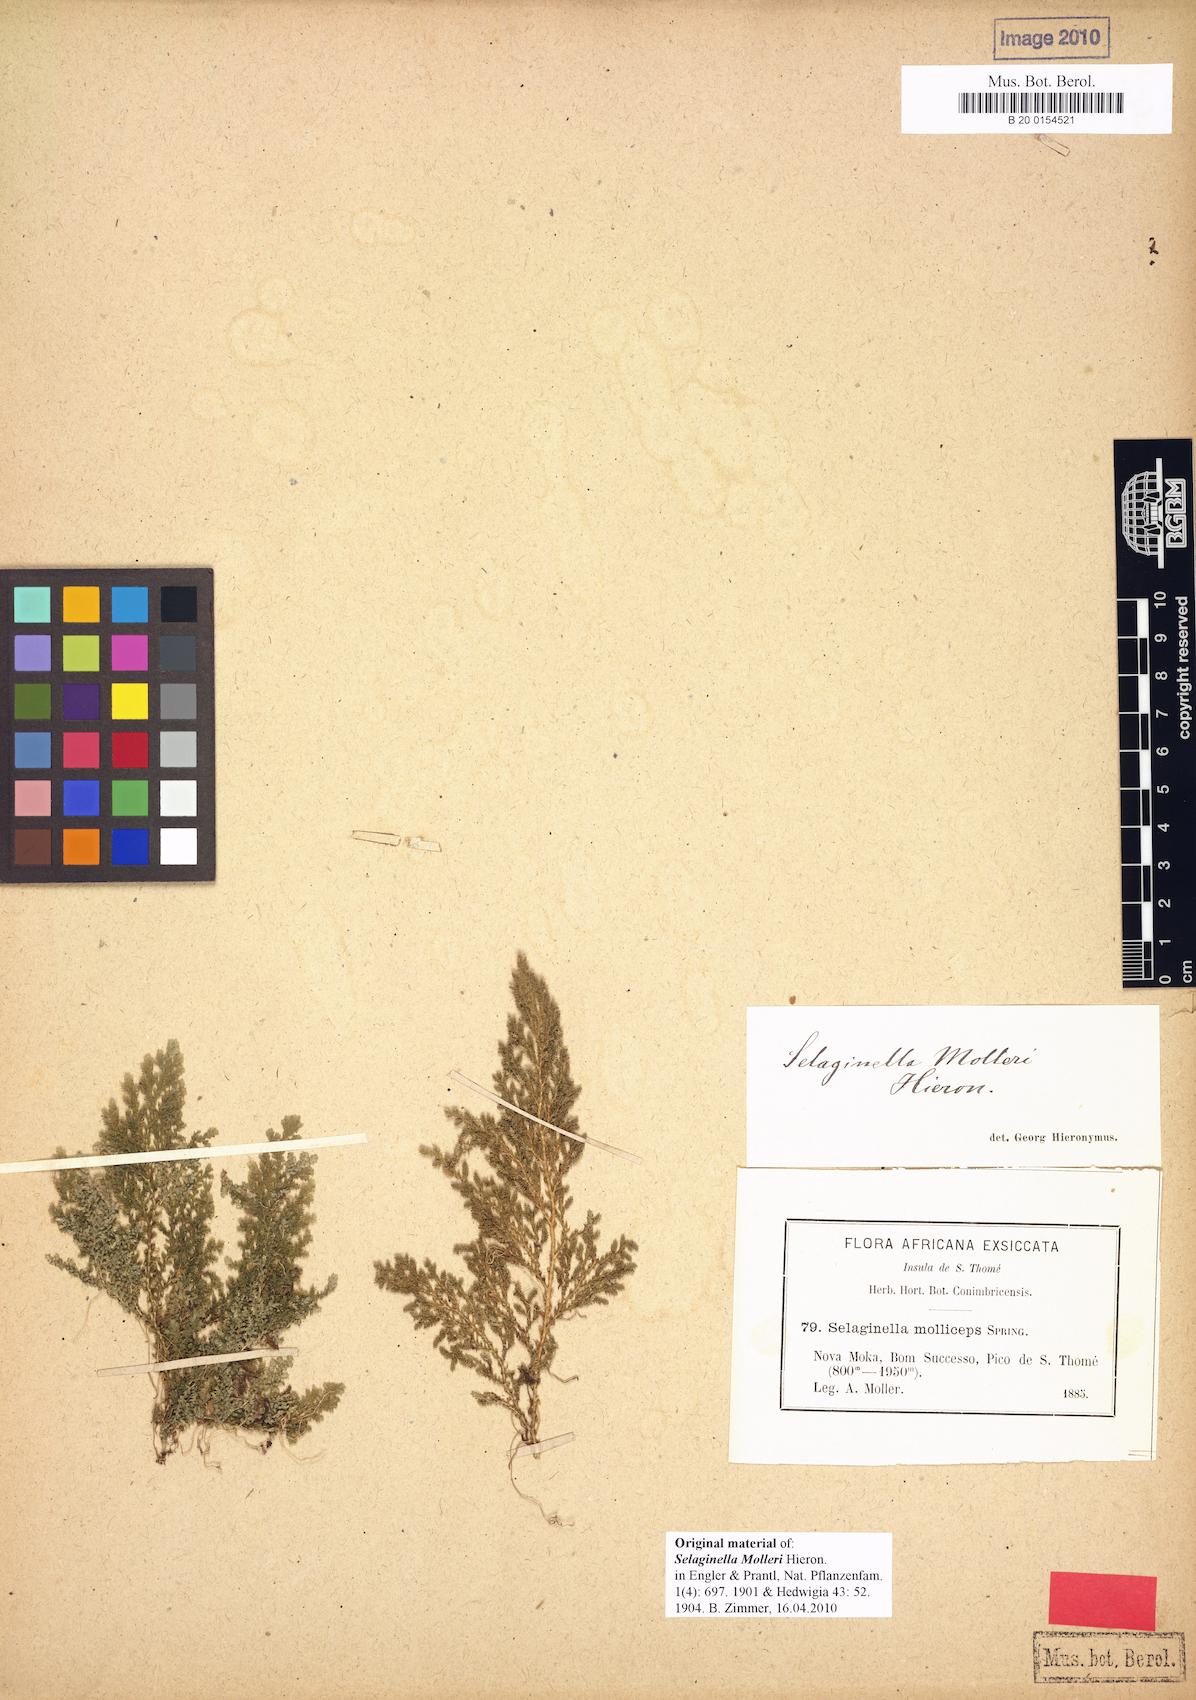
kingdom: Plantae
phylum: Tracheophyta
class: Lycopodiopsida
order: Selaginellales
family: Selaginellaceae
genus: Selaginella
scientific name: Selaginella molleri
